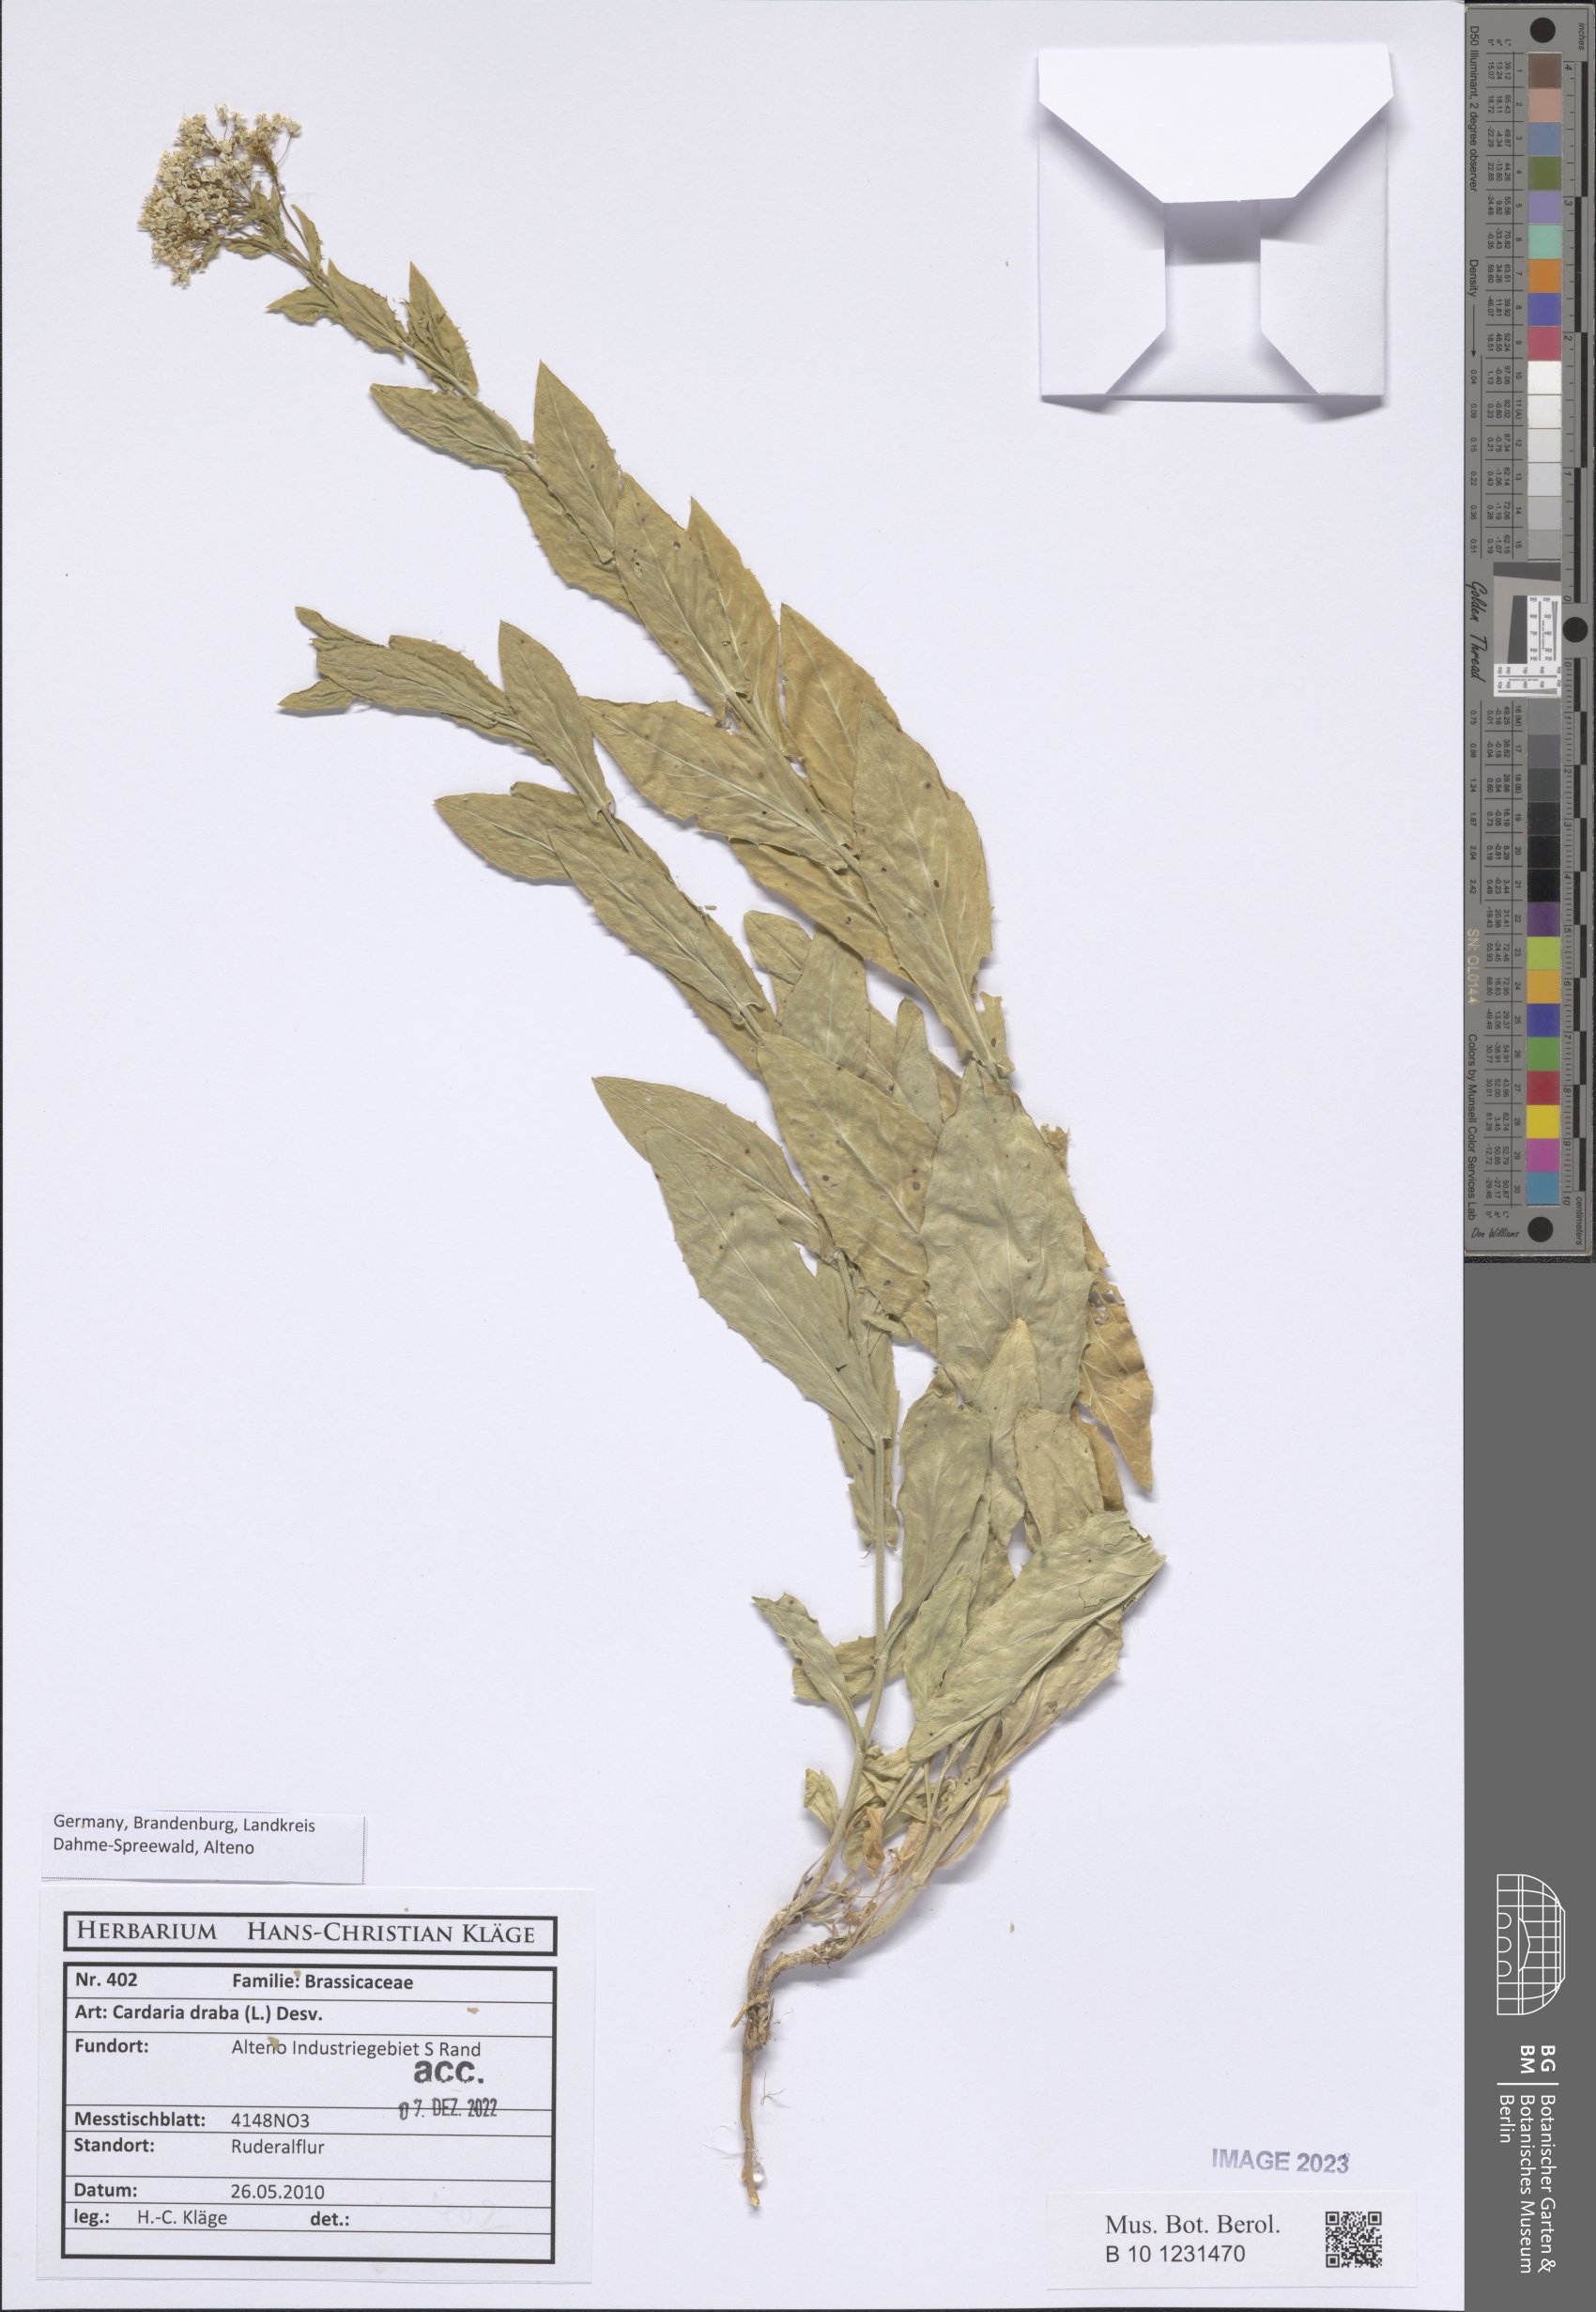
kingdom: Plantae
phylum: Tracheophyta
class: Magnoliopsida
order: Brassicales
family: Brassicaceae
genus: Lepidium
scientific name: Lepidium draba
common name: Hoary cress
